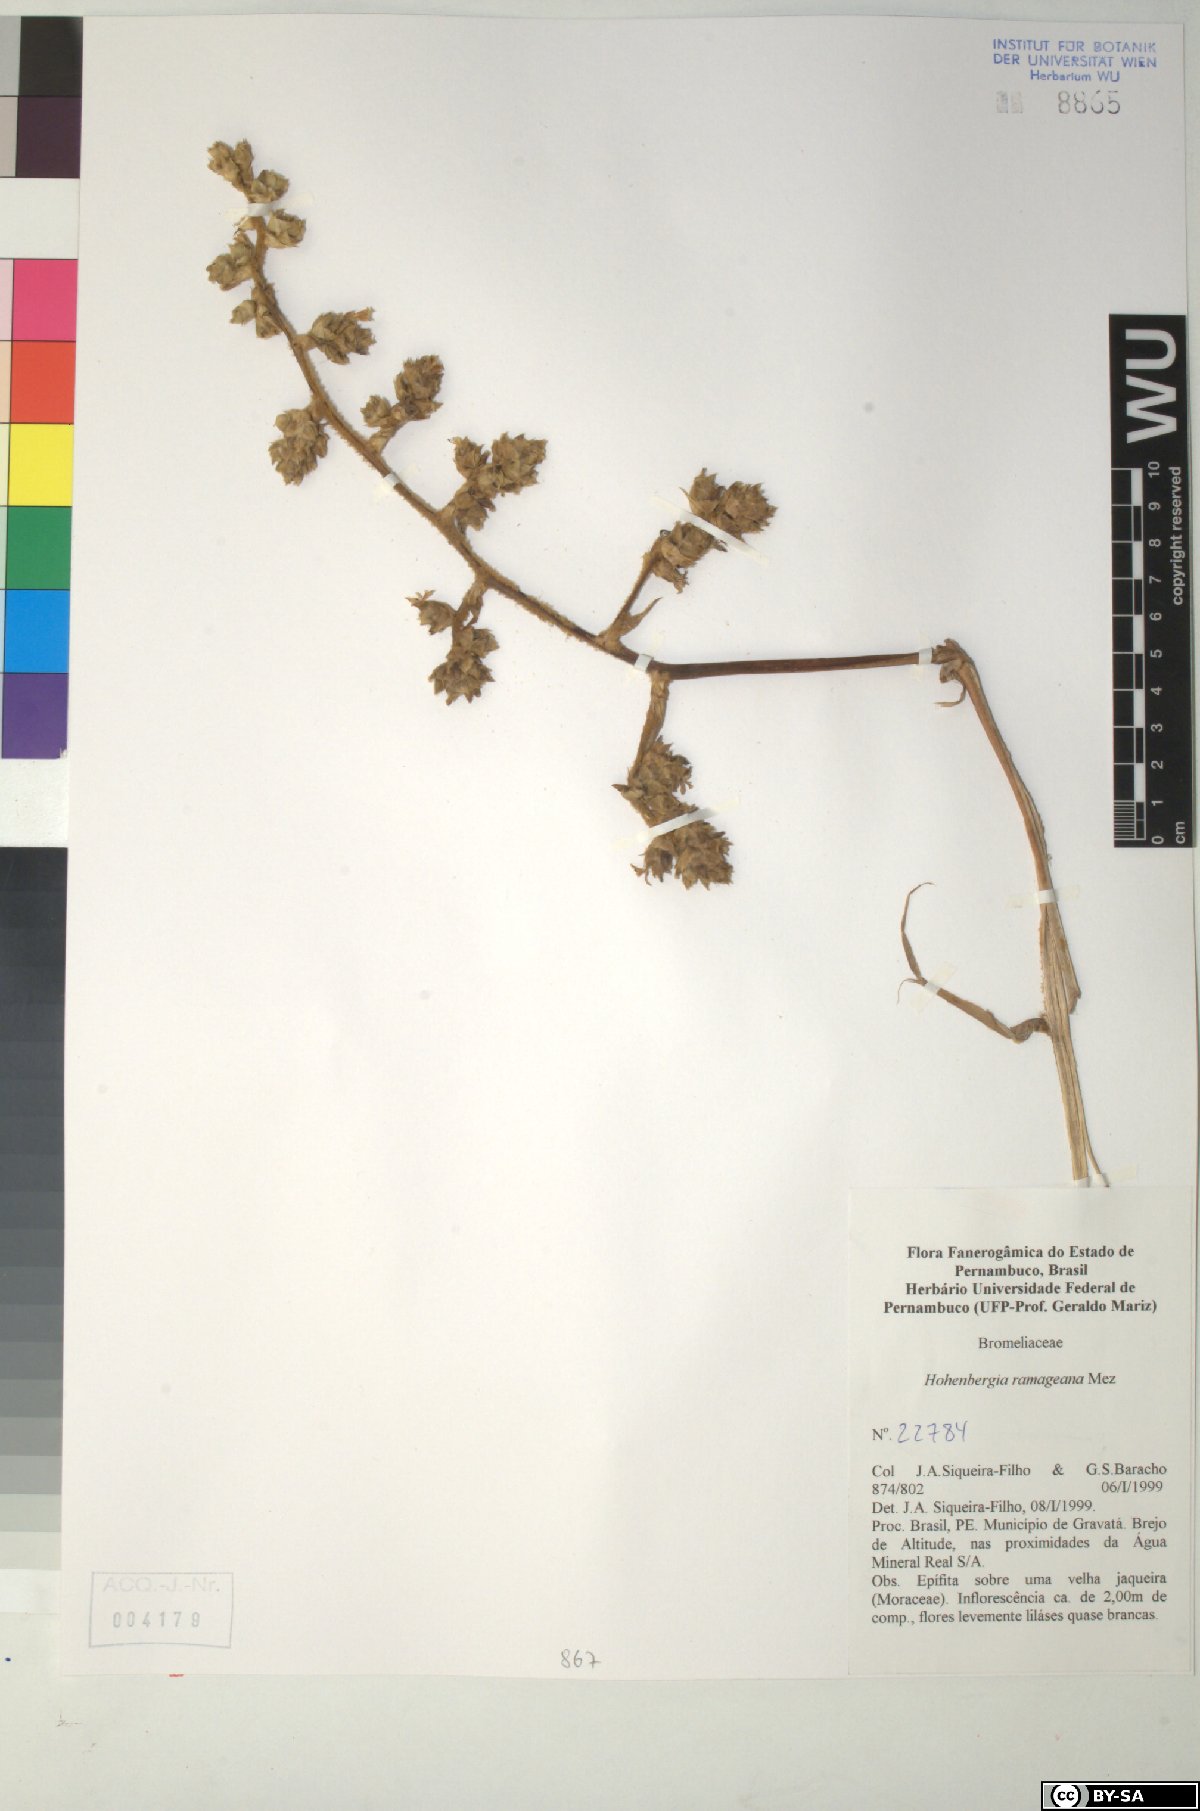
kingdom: Plantae
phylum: Tracheophyta
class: Liliopsida
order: Poales
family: Bromeliaceae
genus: Hohenbergia
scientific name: Hohenbergia ridleyi
